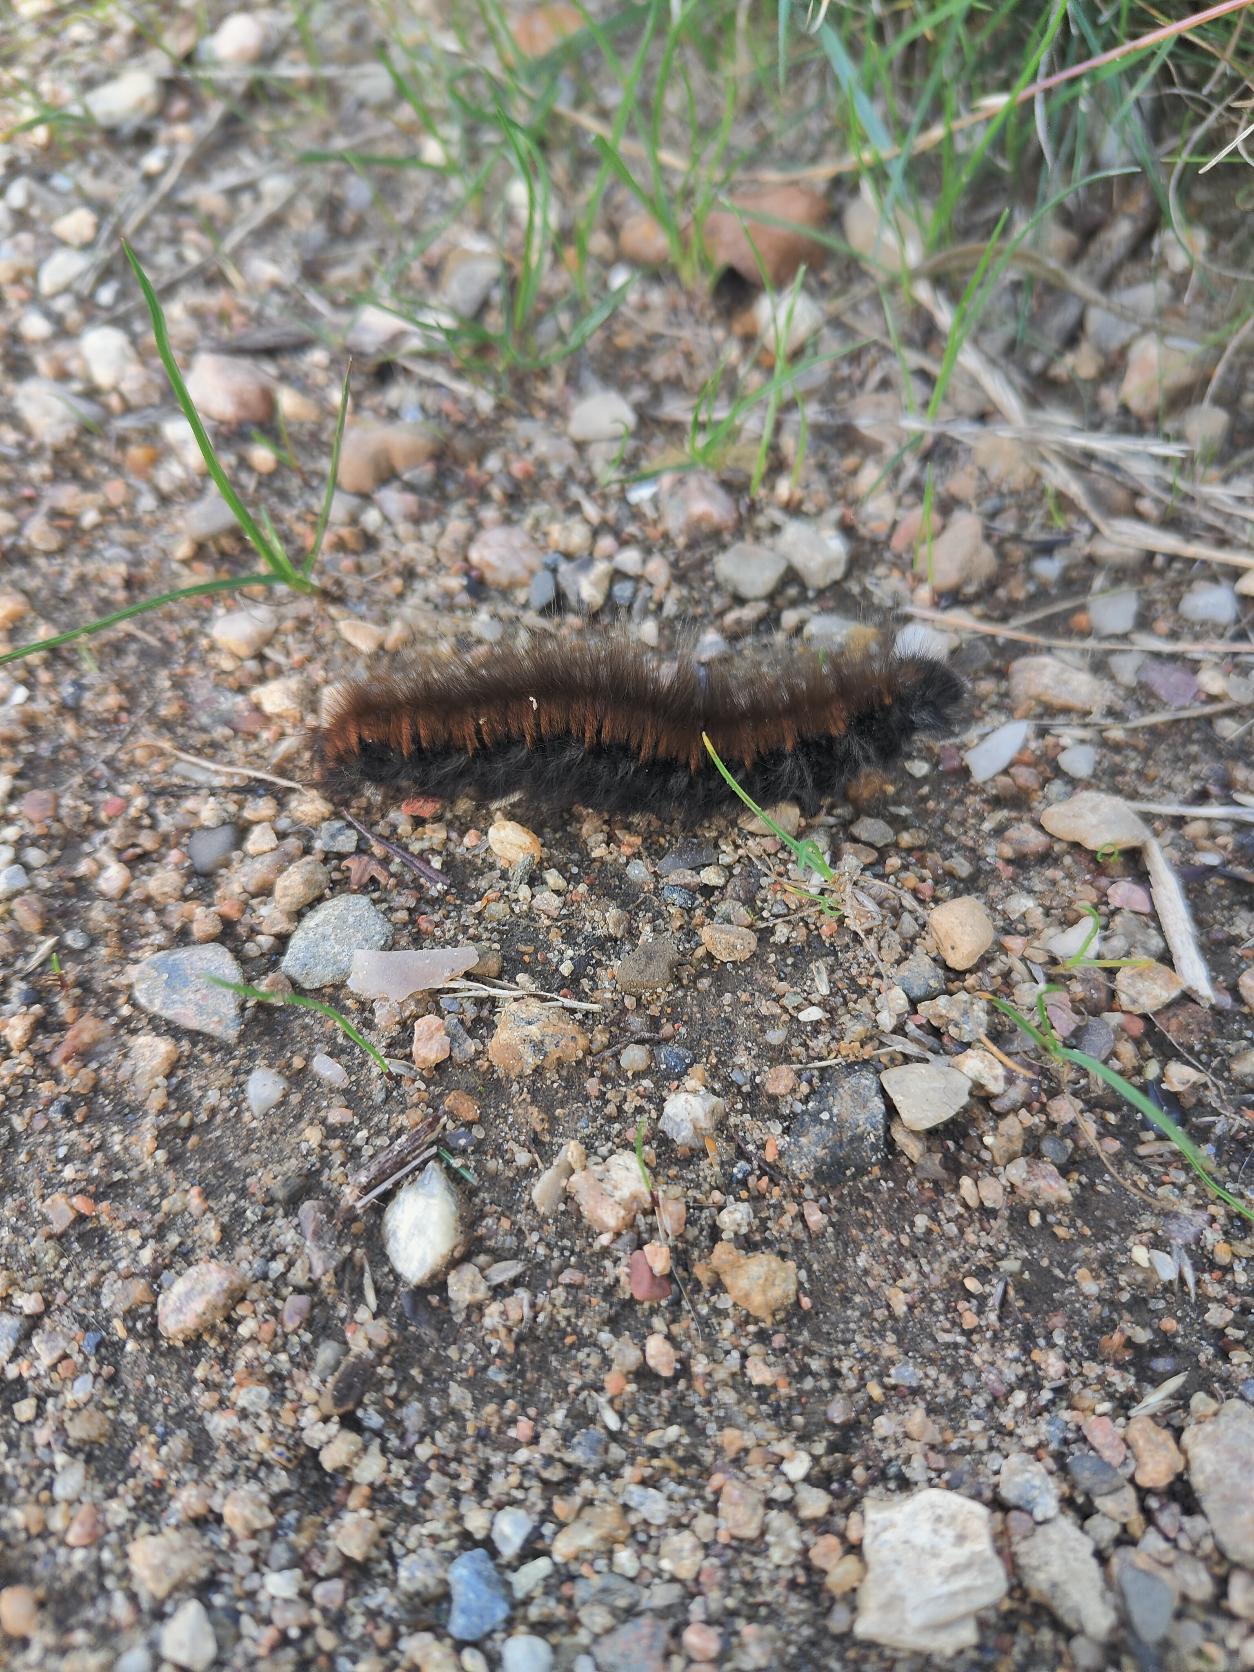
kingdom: Animalia
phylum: Arthropoda
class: Insecta
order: Lepidoptera
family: Lasiocampidae
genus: Macrothylacia
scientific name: Macrothylacia rubi
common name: Brombærspinder
